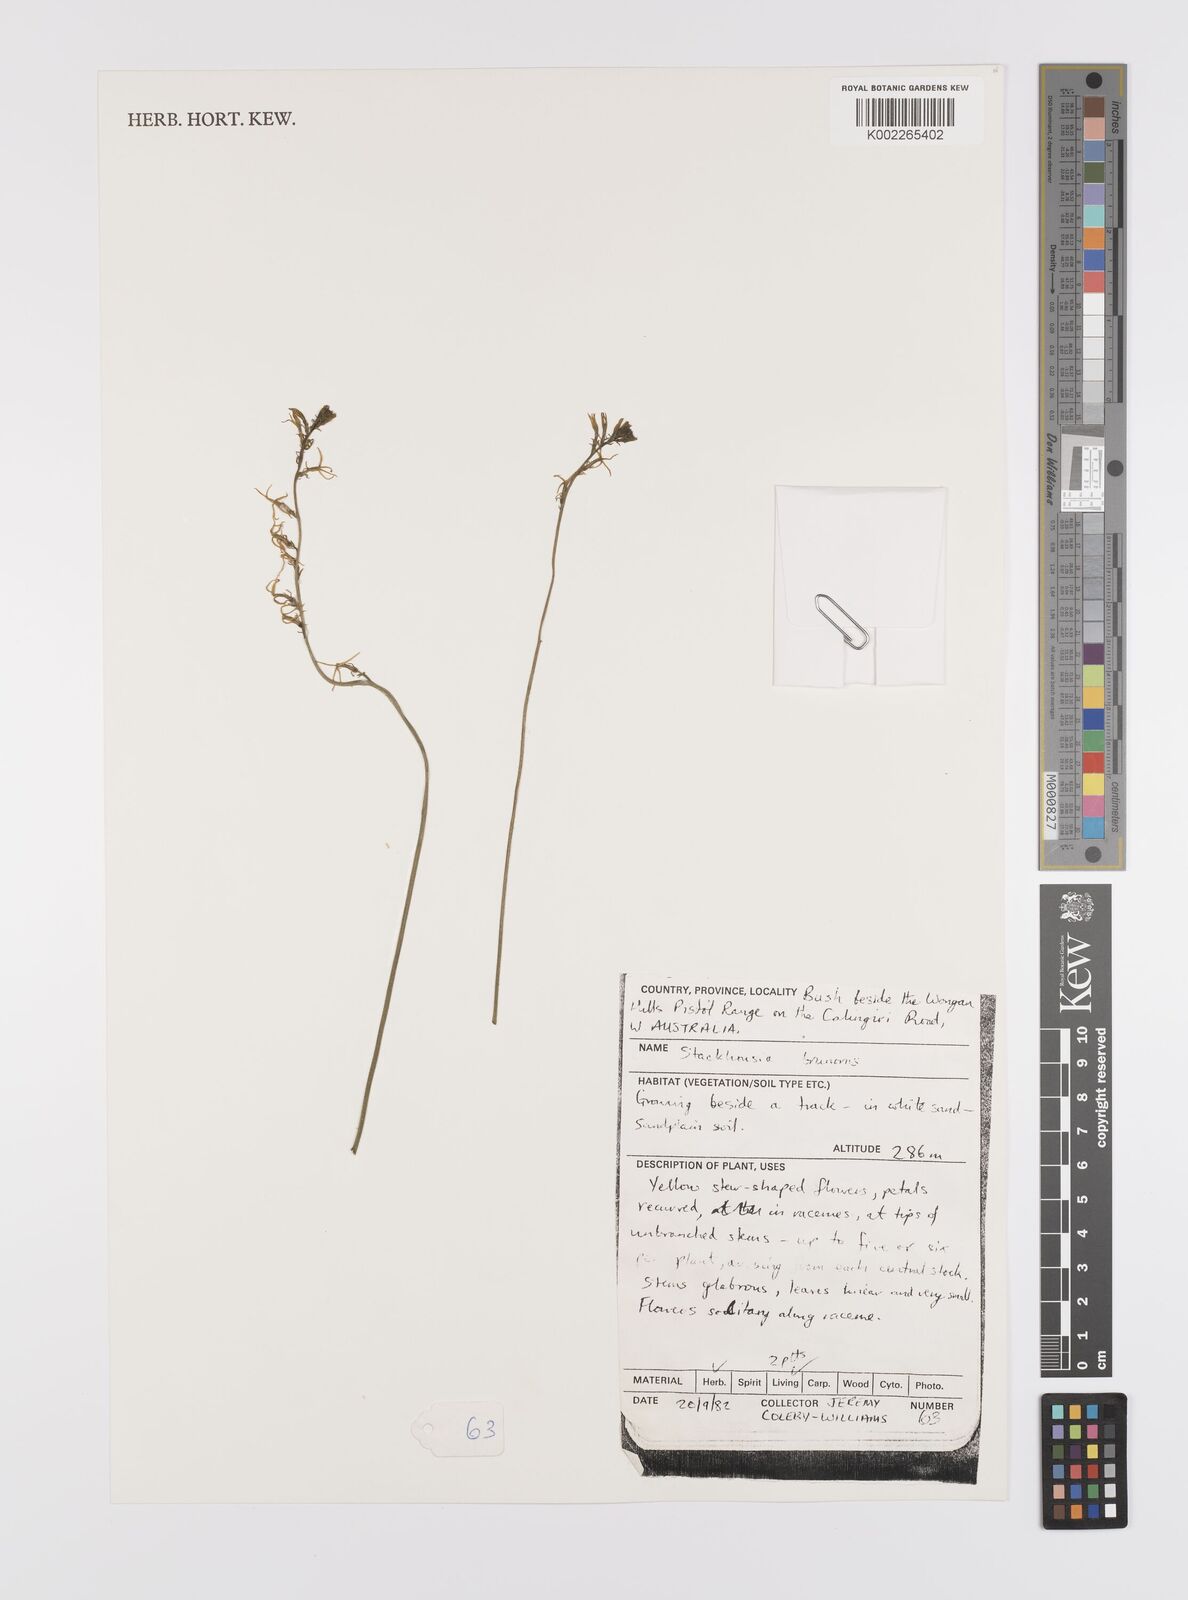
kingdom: Plantae
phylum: Tracheophyta
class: Magnoliopsida
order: Celastrales
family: Celastraceae
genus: Tripterococcus
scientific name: Tripterococcus brunonis
